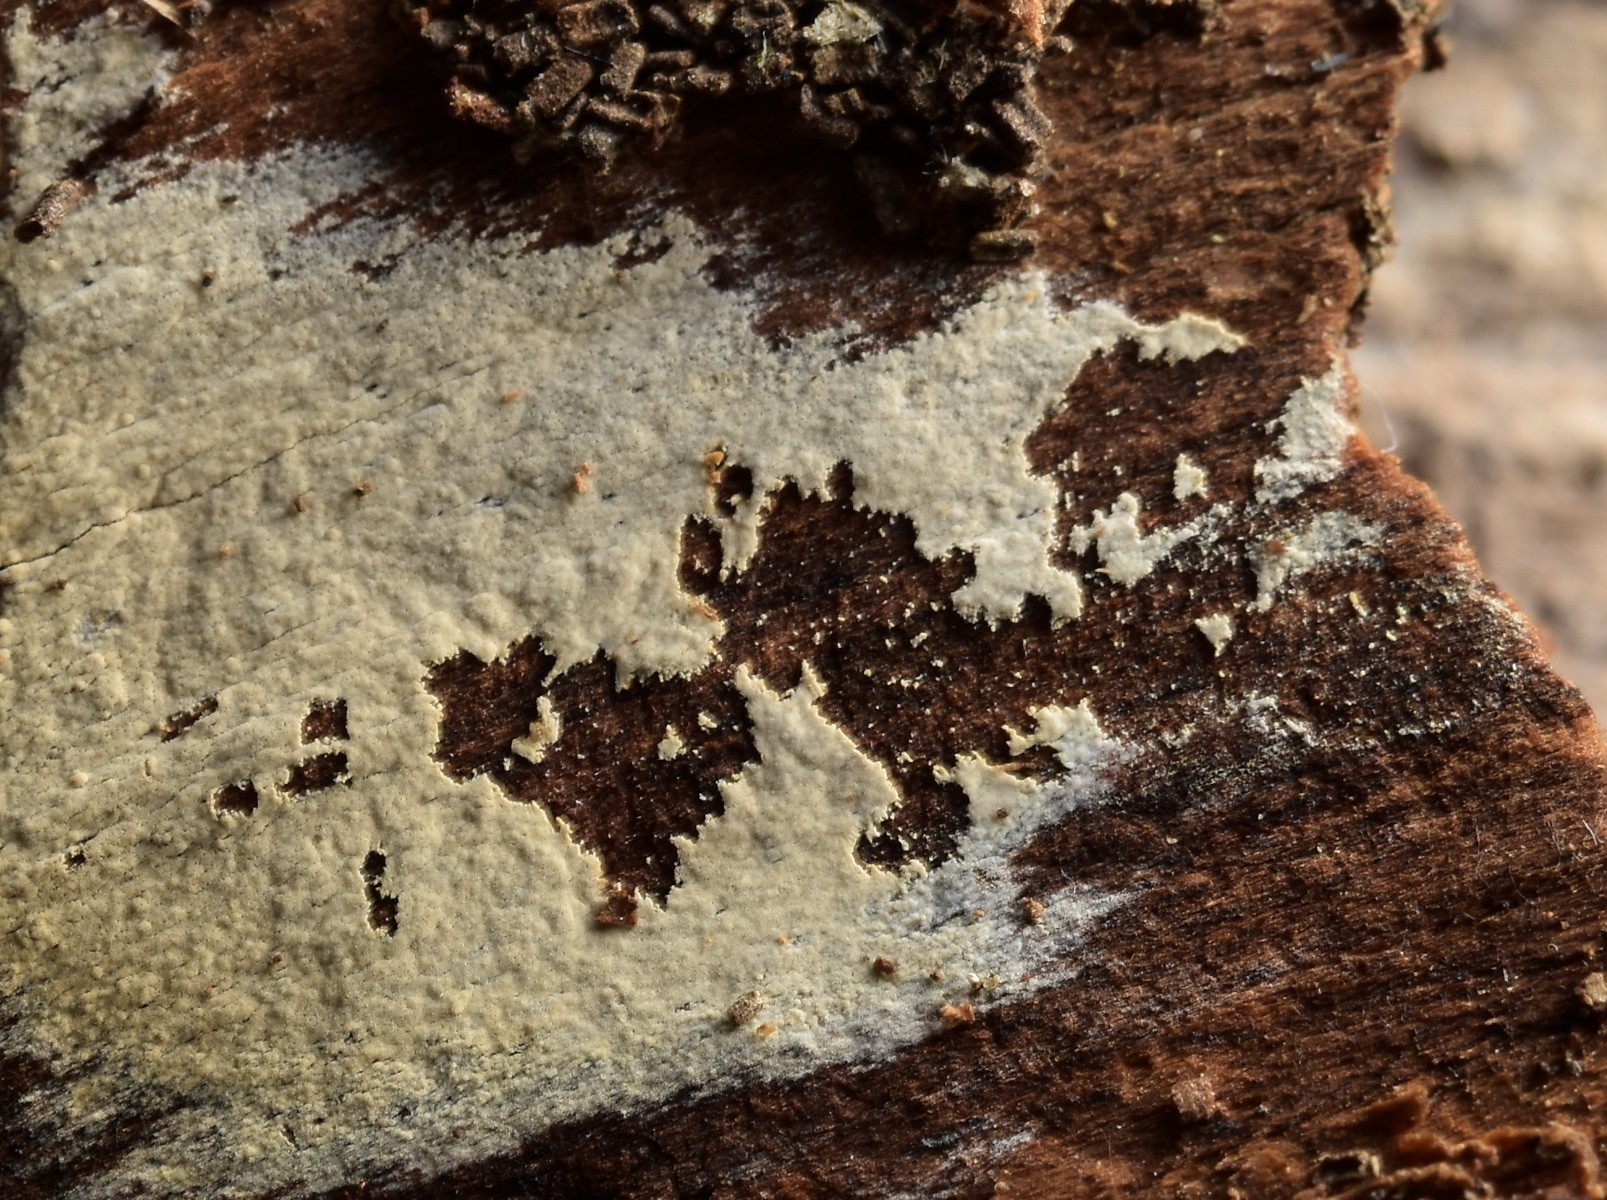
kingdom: Fungi
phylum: Basidiomycota
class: Agaricomycetes
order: Hymenochaetales
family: Hyphodontiaceae
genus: Hyphodontia
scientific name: Hyphodontia alutaria
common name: flaskerenser-nålehinde
